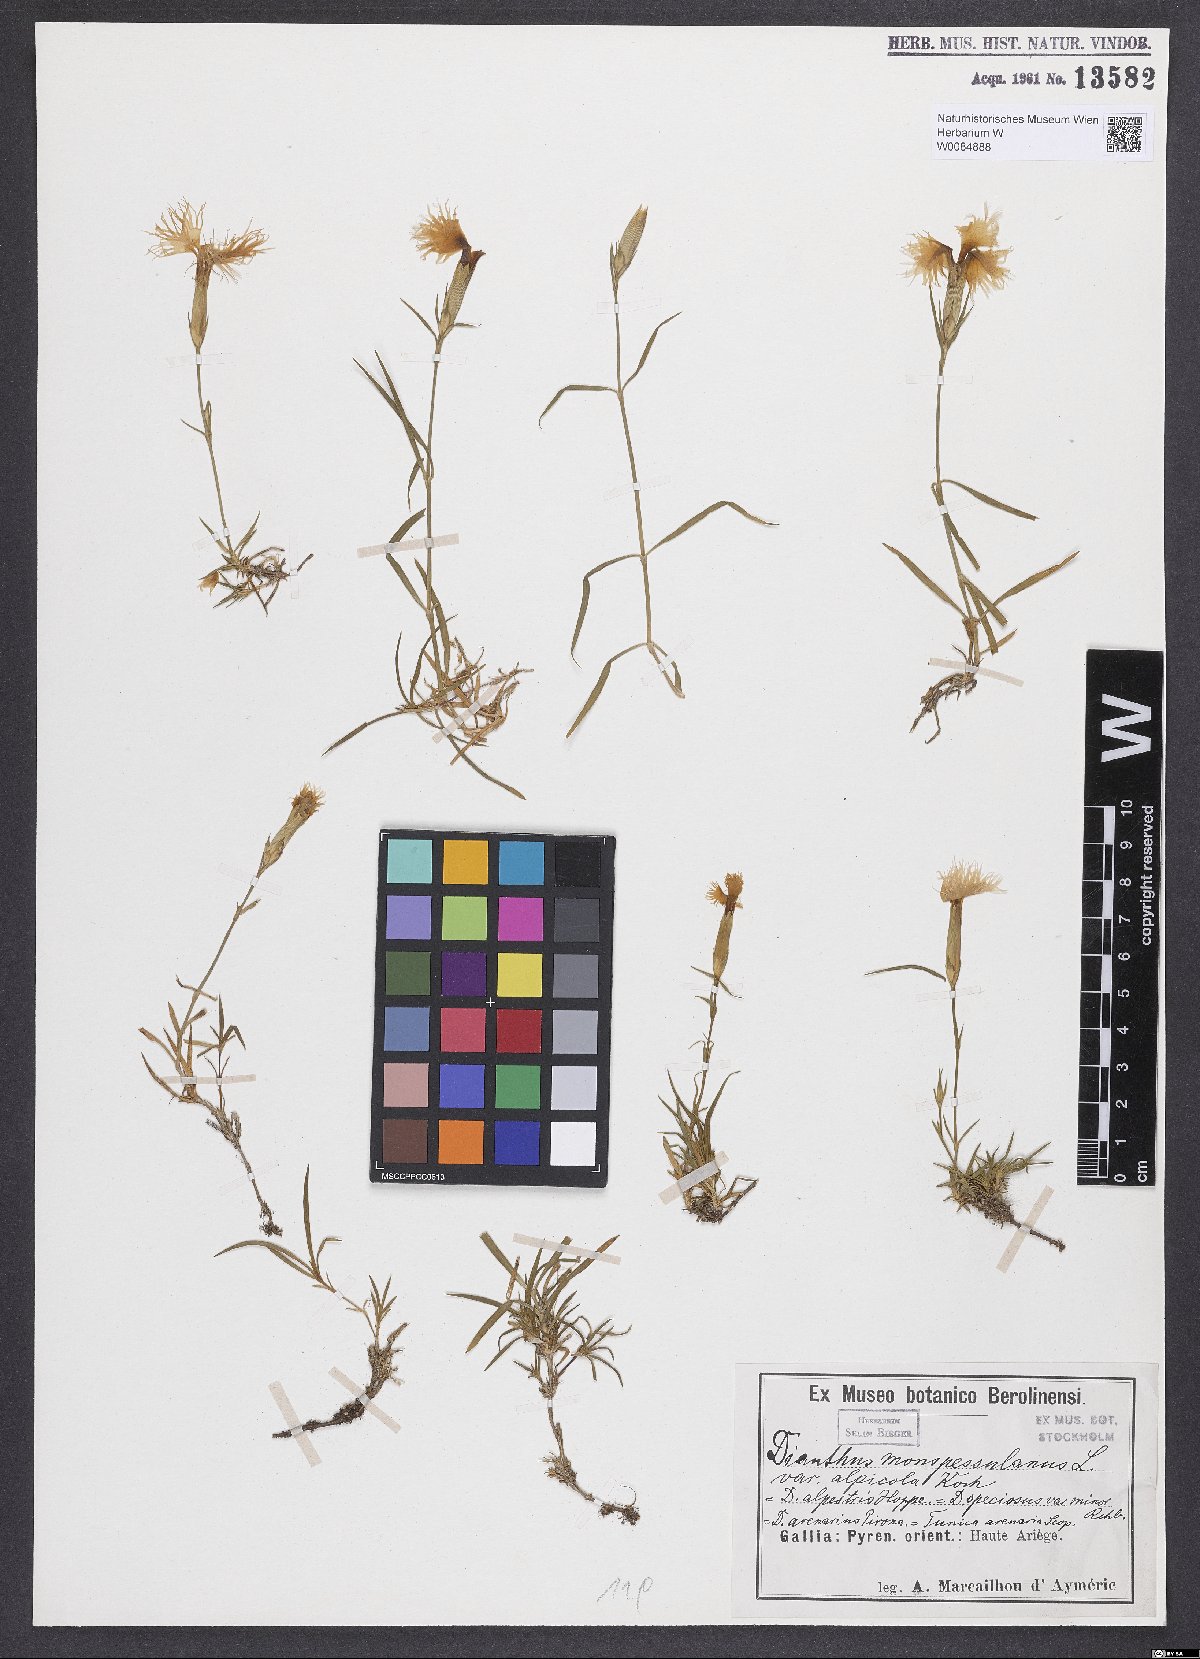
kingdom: Plantae
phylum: Tracheophyta
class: Magnoliopsida
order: Caryophyllales
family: Caryophyllaceae
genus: Dianthus
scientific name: Dianthus hyssopifolius
